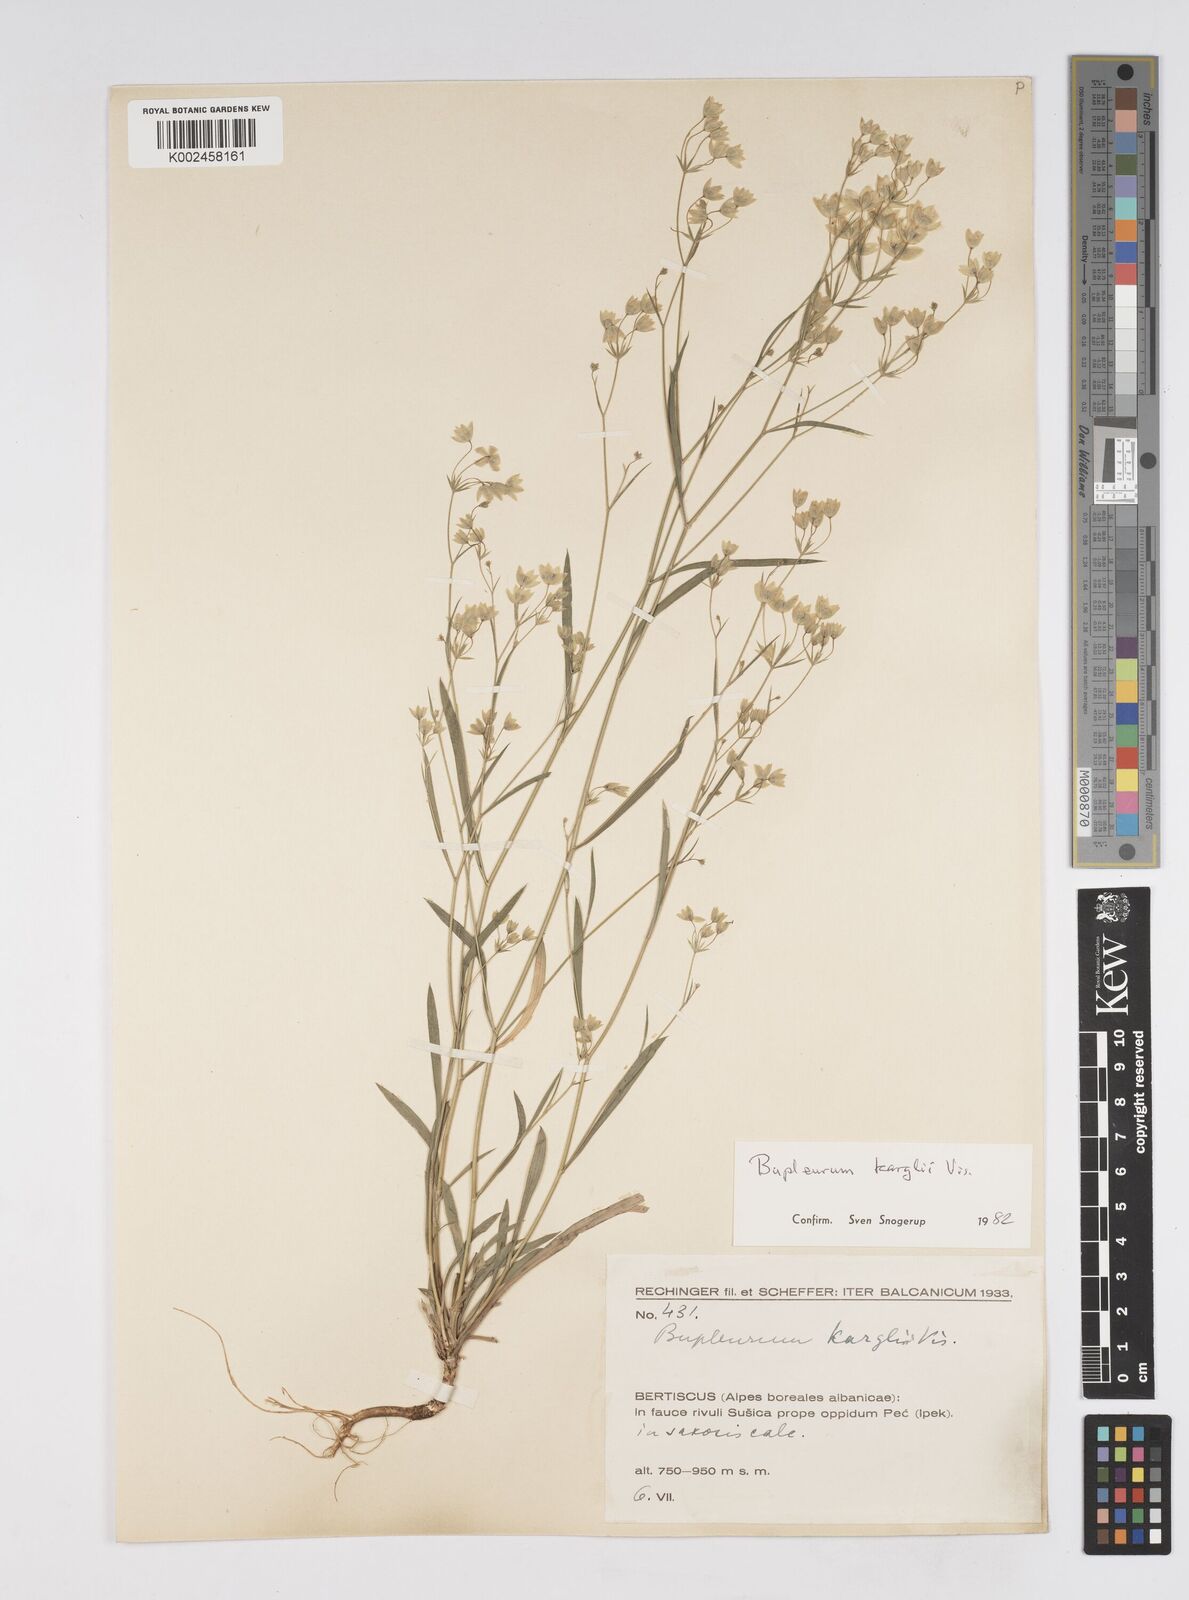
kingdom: Plantae
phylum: Tracheophyta
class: Magnoliopsida
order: Apiales
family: Apiaceae
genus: Bupleurum
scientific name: Bupleurum karglii
